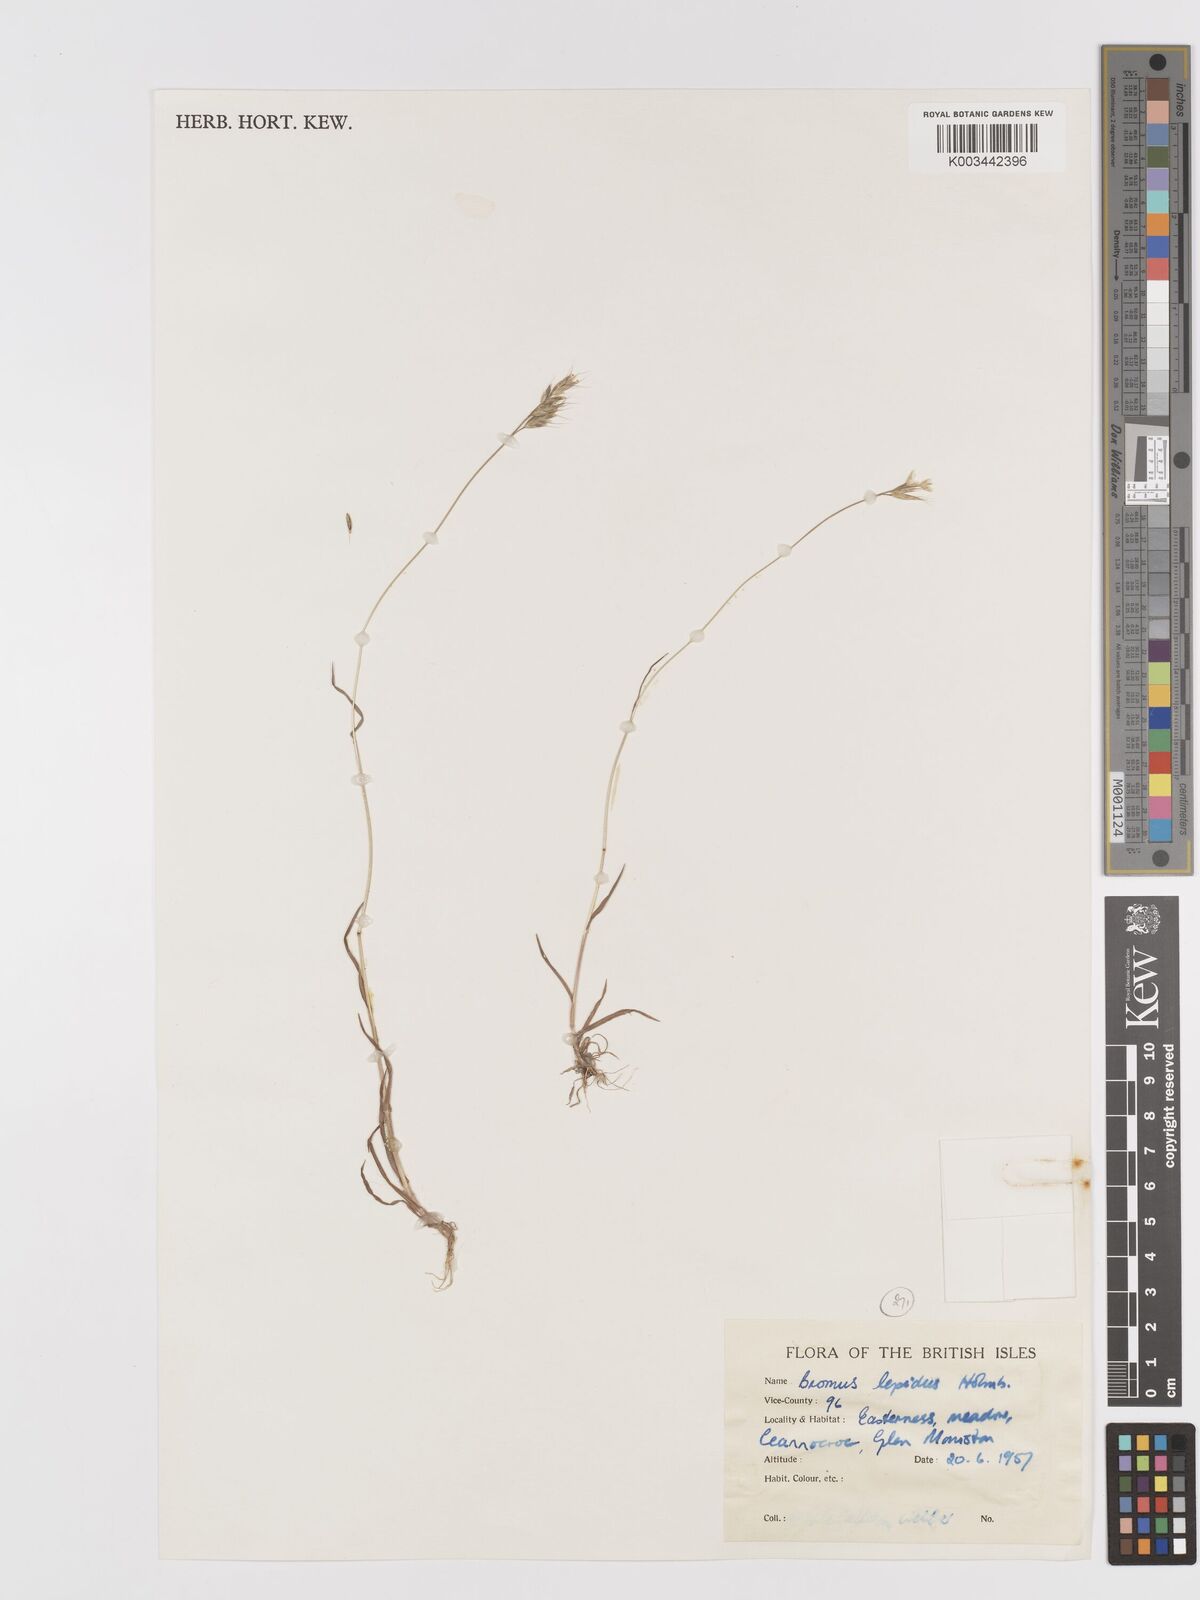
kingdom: Plantae
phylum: Tracheophyta
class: Liliopsida
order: Poales
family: Poaceae
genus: Bromus
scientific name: Bromus lepidus
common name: Slender soft-brome
